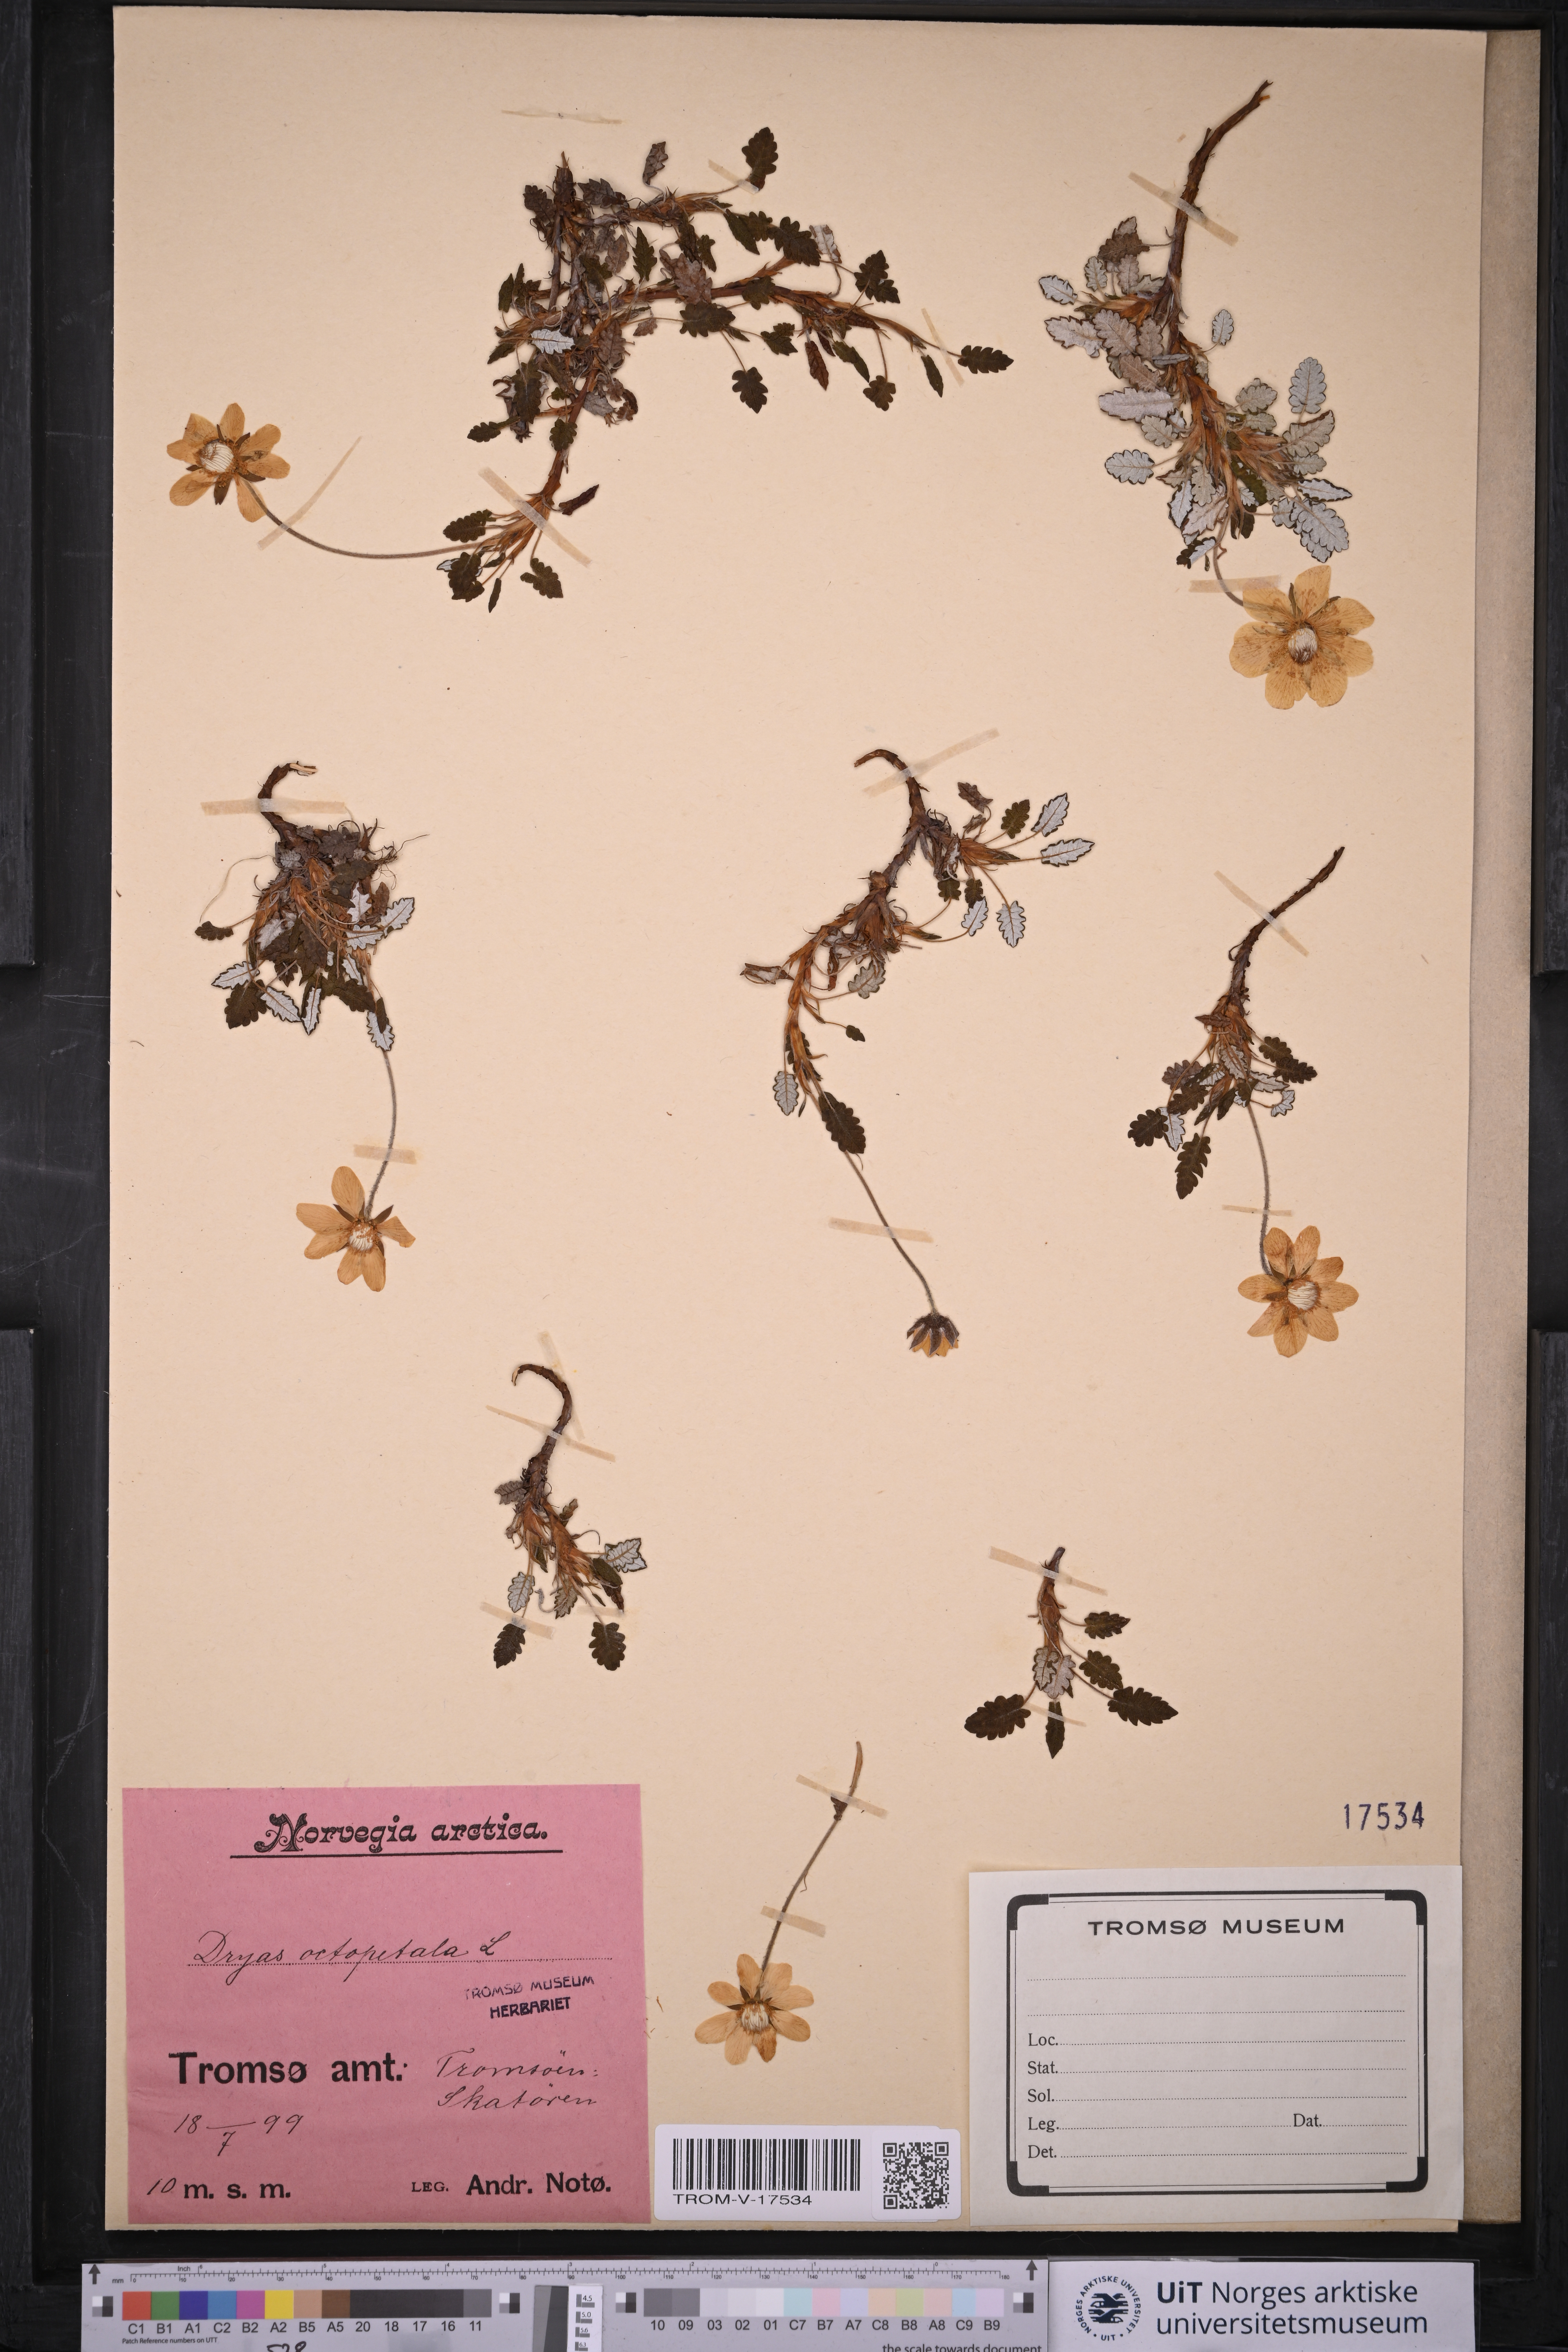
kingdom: Plantae
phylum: Tracheophyta
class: Magnoliopsida
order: Rosales
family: Rosaceae
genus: Dryas
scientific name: Dryas octopetala
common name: Eight-petal mountain-avens
